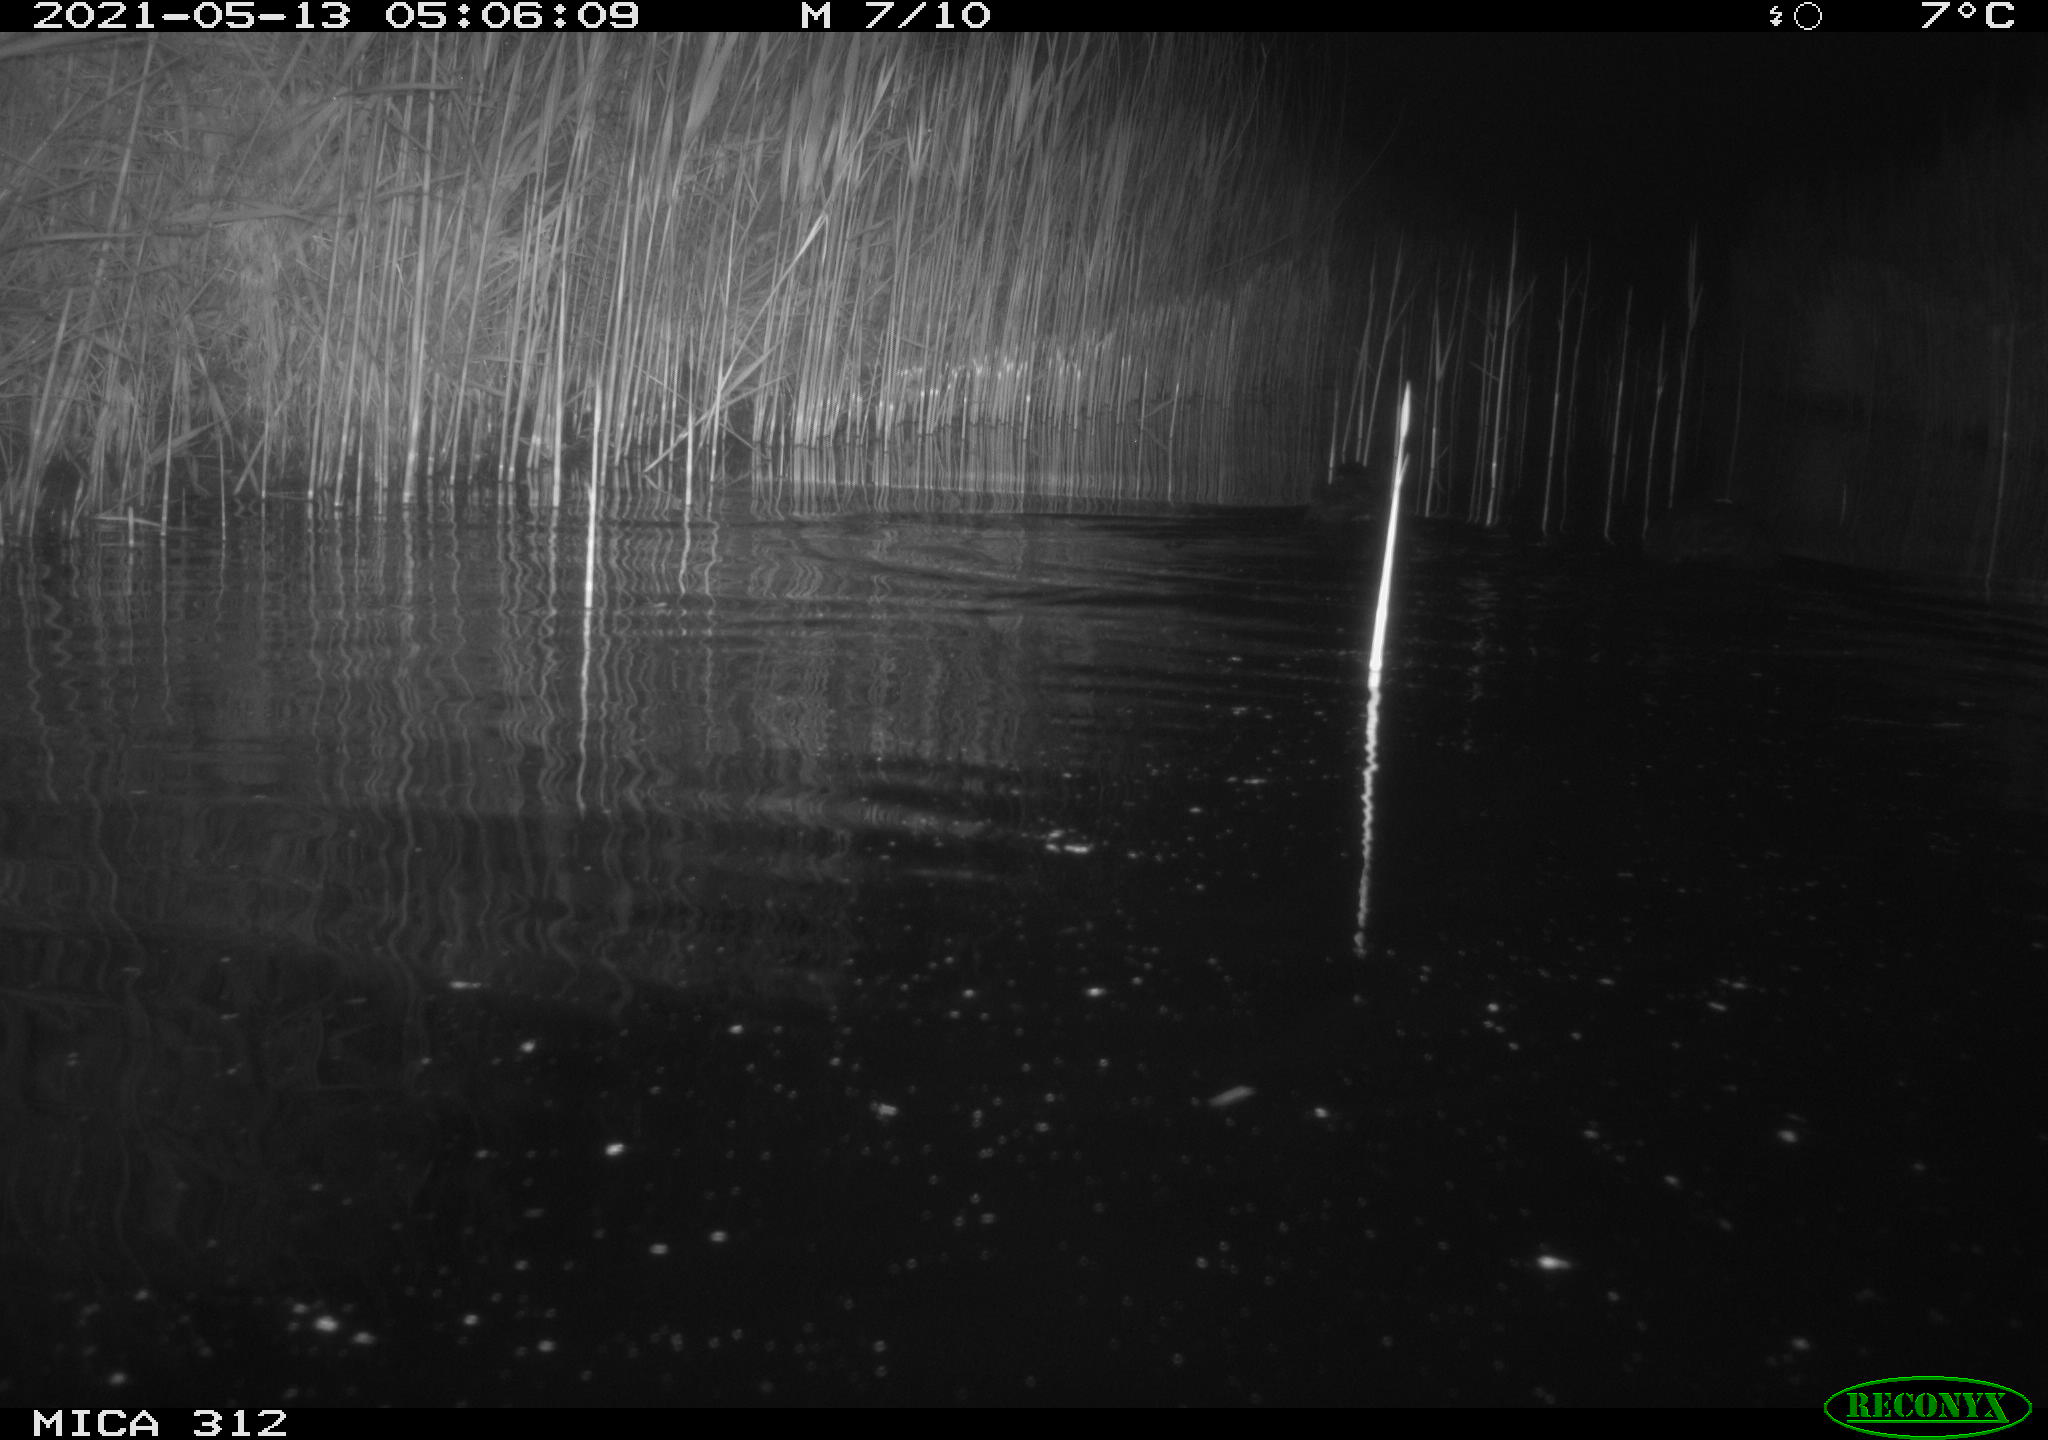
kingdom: Animalia
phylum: Chordata
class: Aves
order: Gruiformes
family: Rallidae
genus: Fulica
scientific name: Fulica atra
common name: Eurasian coot
